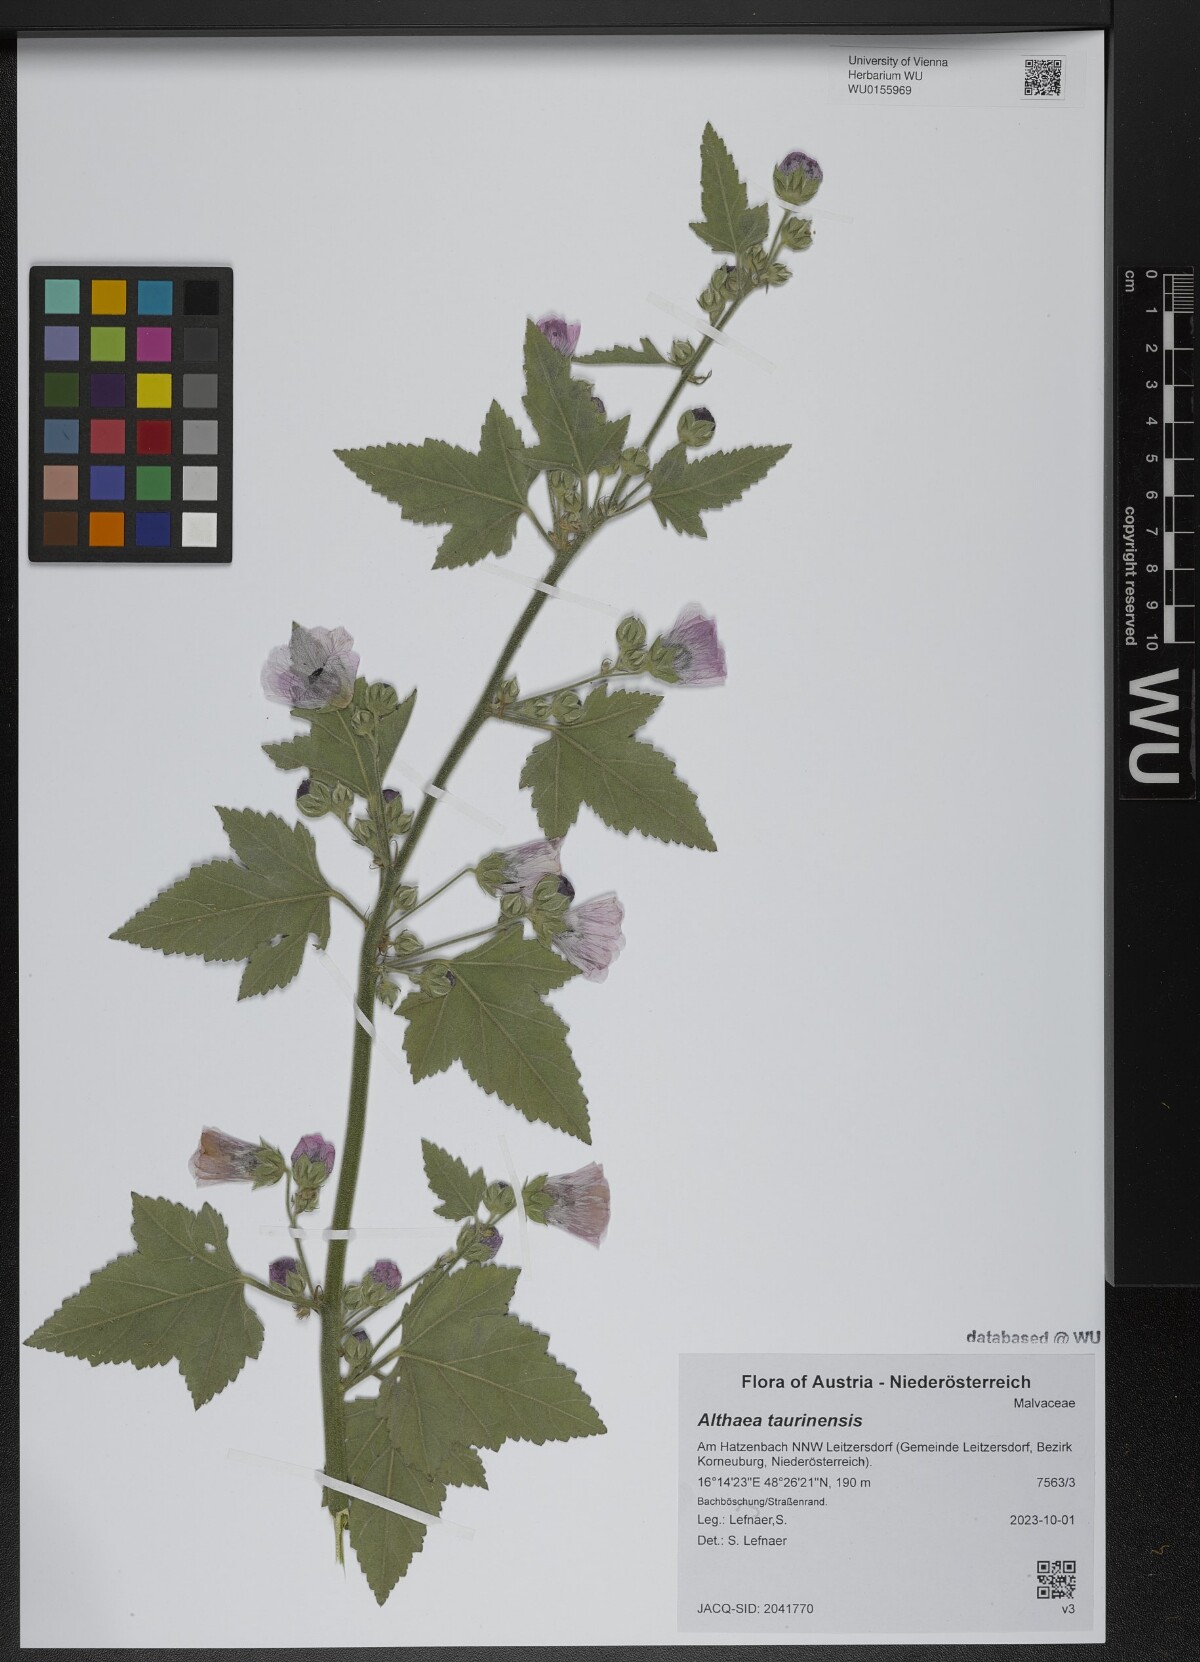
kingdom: Plantae
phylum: Tracheophyta
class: Magnoliopsida
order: Malvales
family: Malvaceae
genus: Althaea
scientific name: Althaea taurinensis
